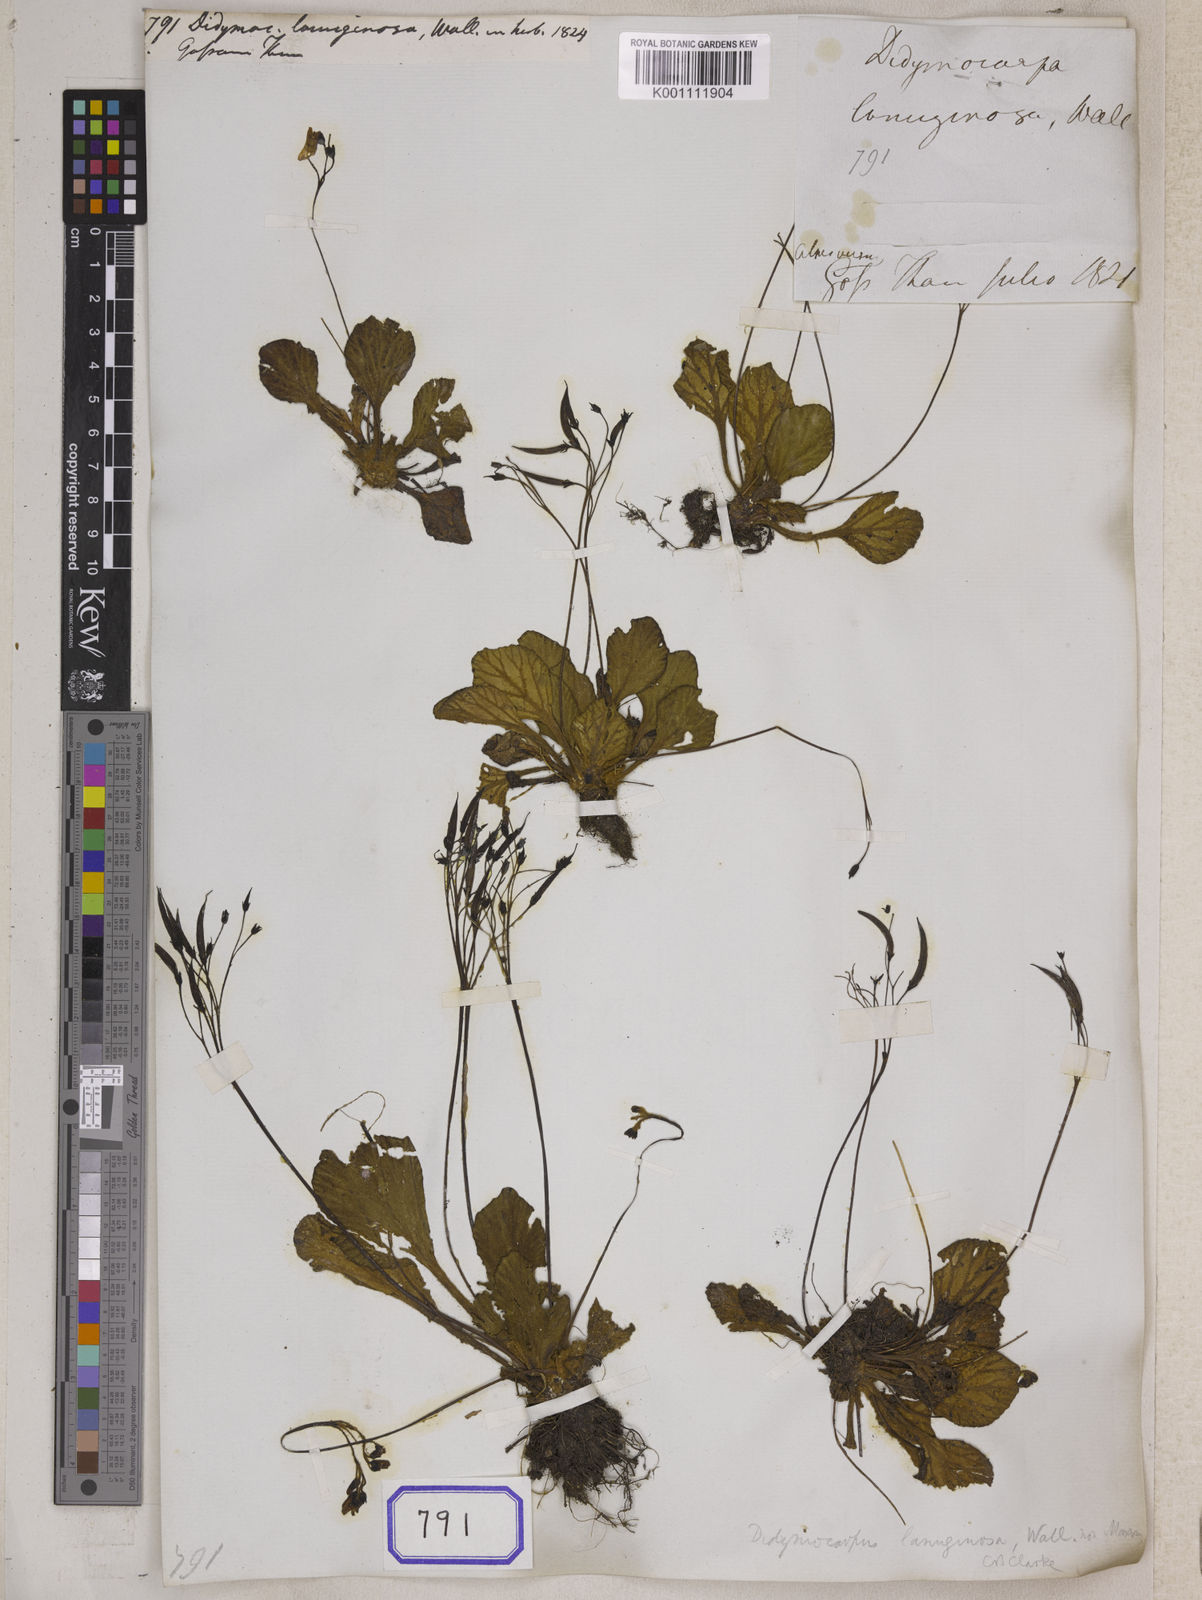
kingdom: Plantae
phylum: Tracheophyta
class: Magnoliopsida
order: Lamiales
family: Gesneriaceae
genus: Didymocarpus
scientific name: Didymocarpus
